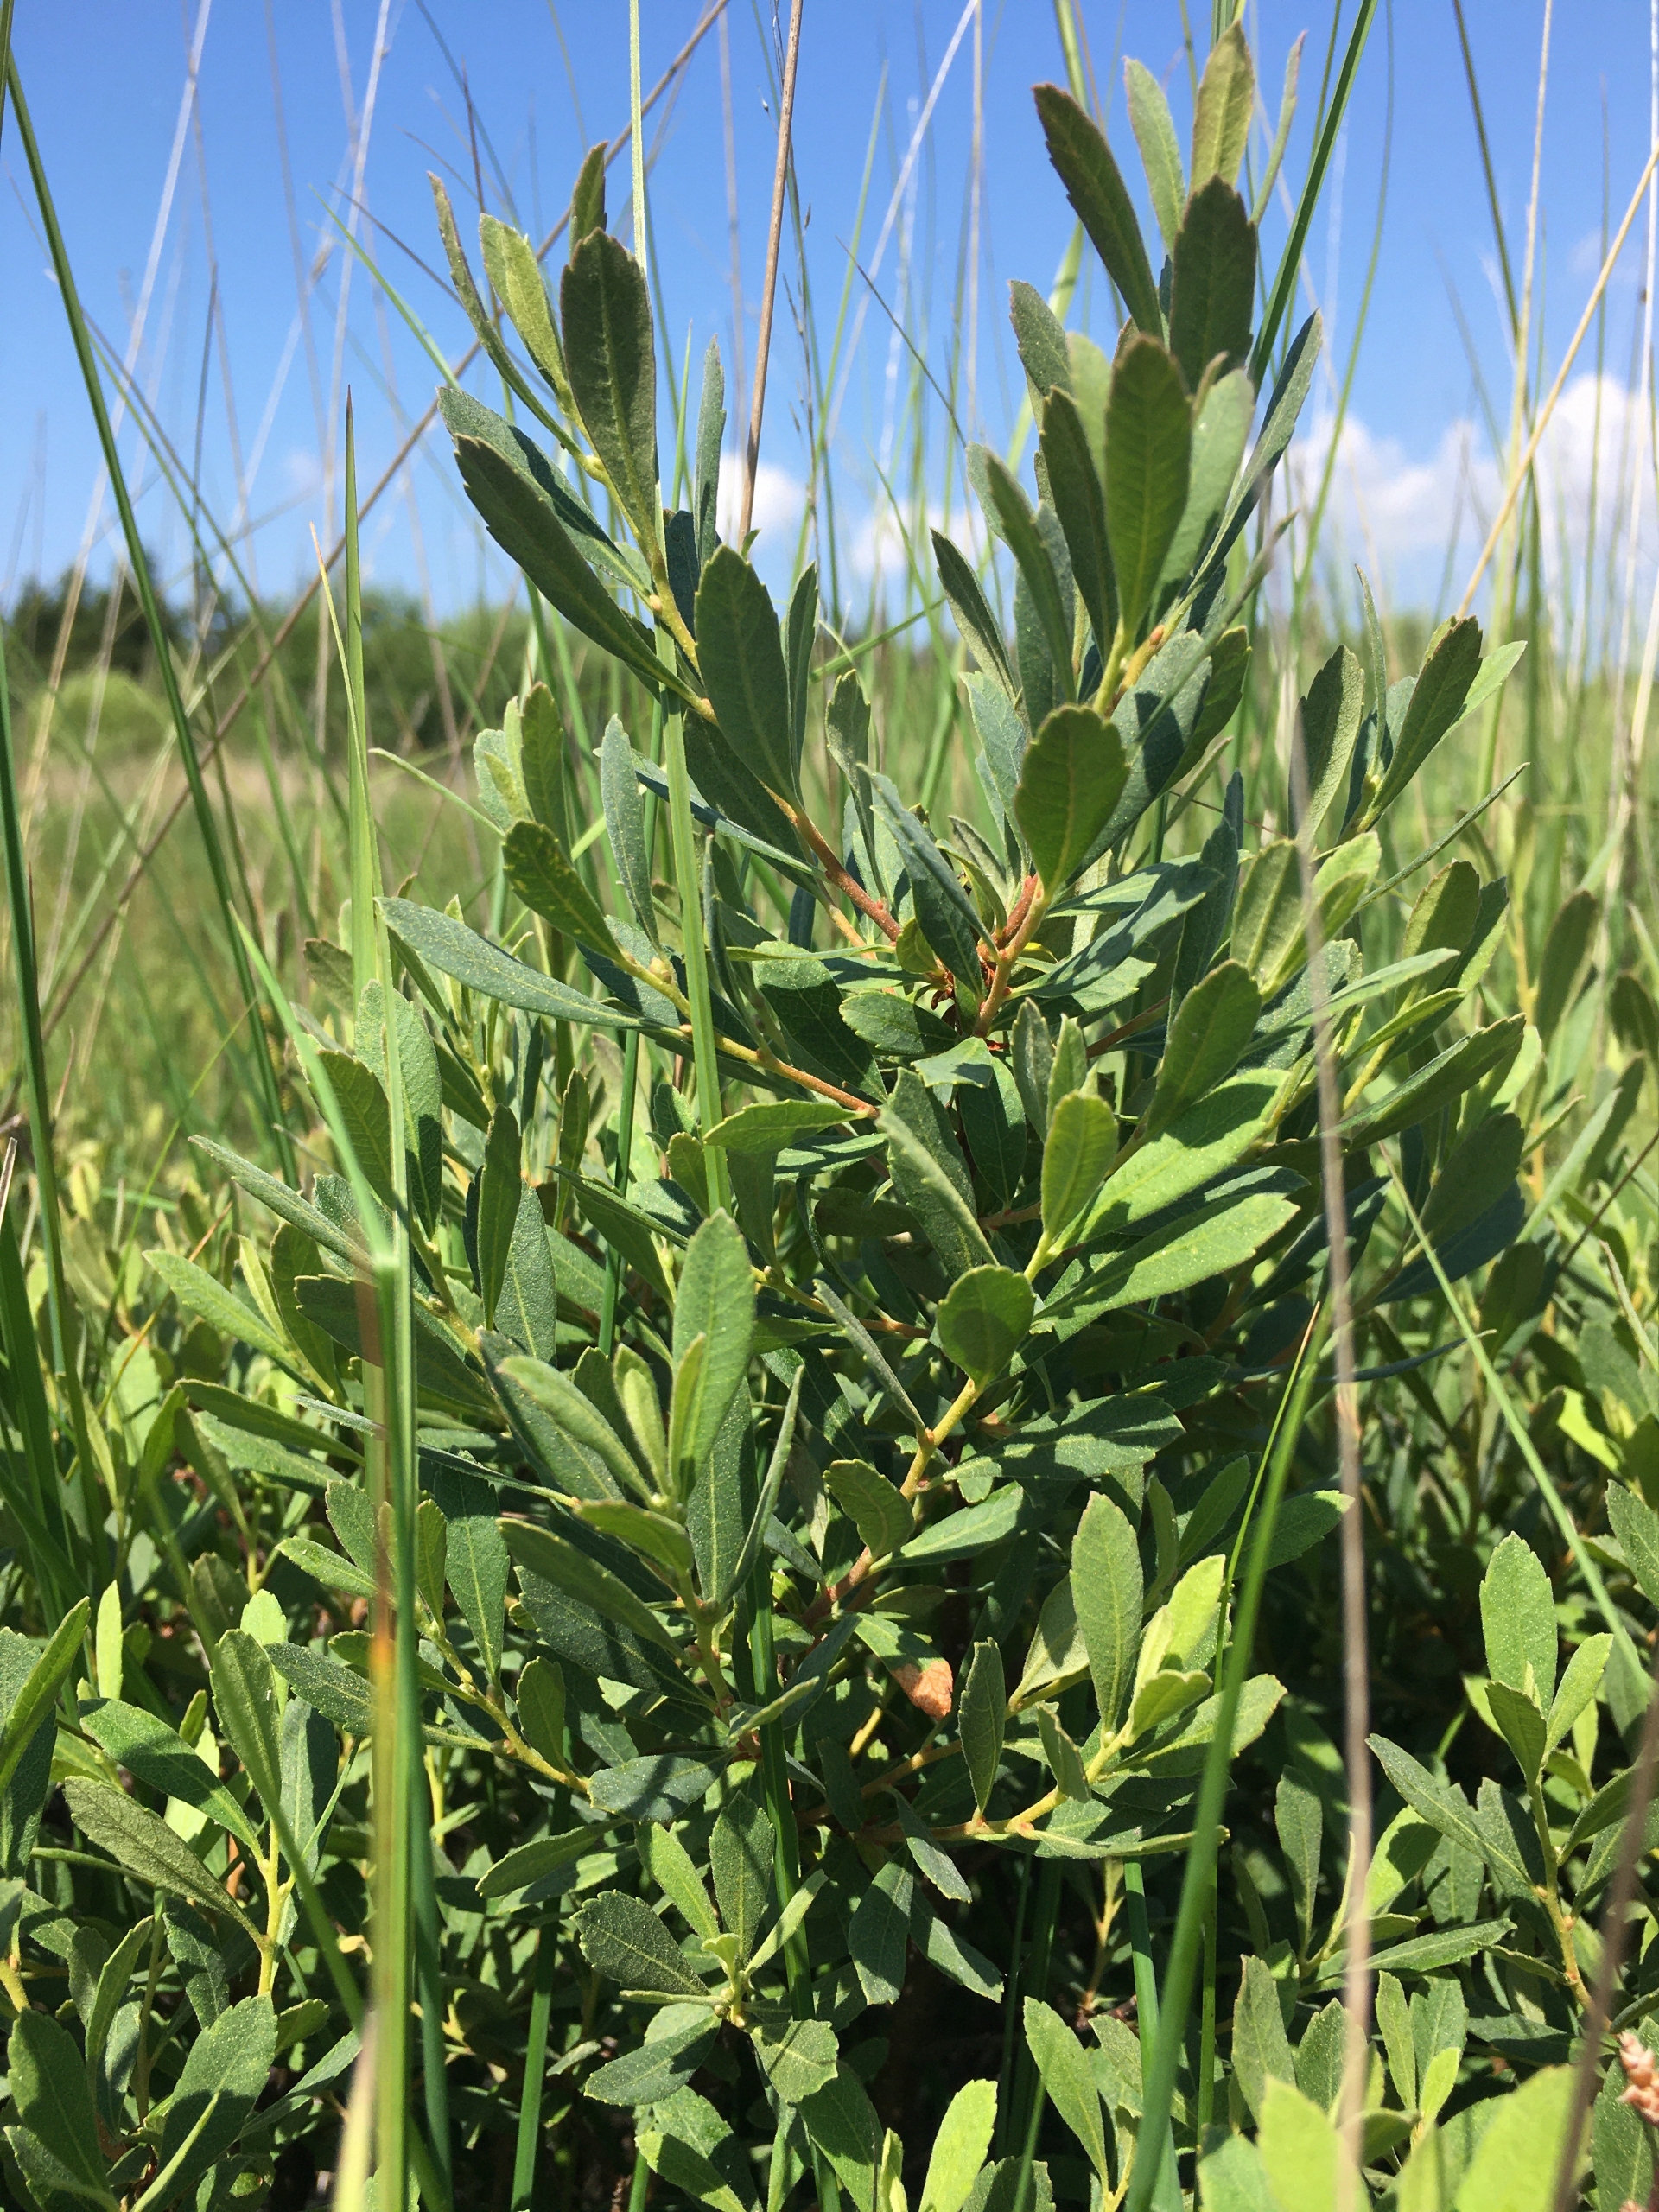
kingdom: Plantae
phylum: Tracheophyta
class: Magnoliopsida
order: Fagales
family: Myricaceae
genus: Myrica
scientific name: Myrica gale
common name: Pors
